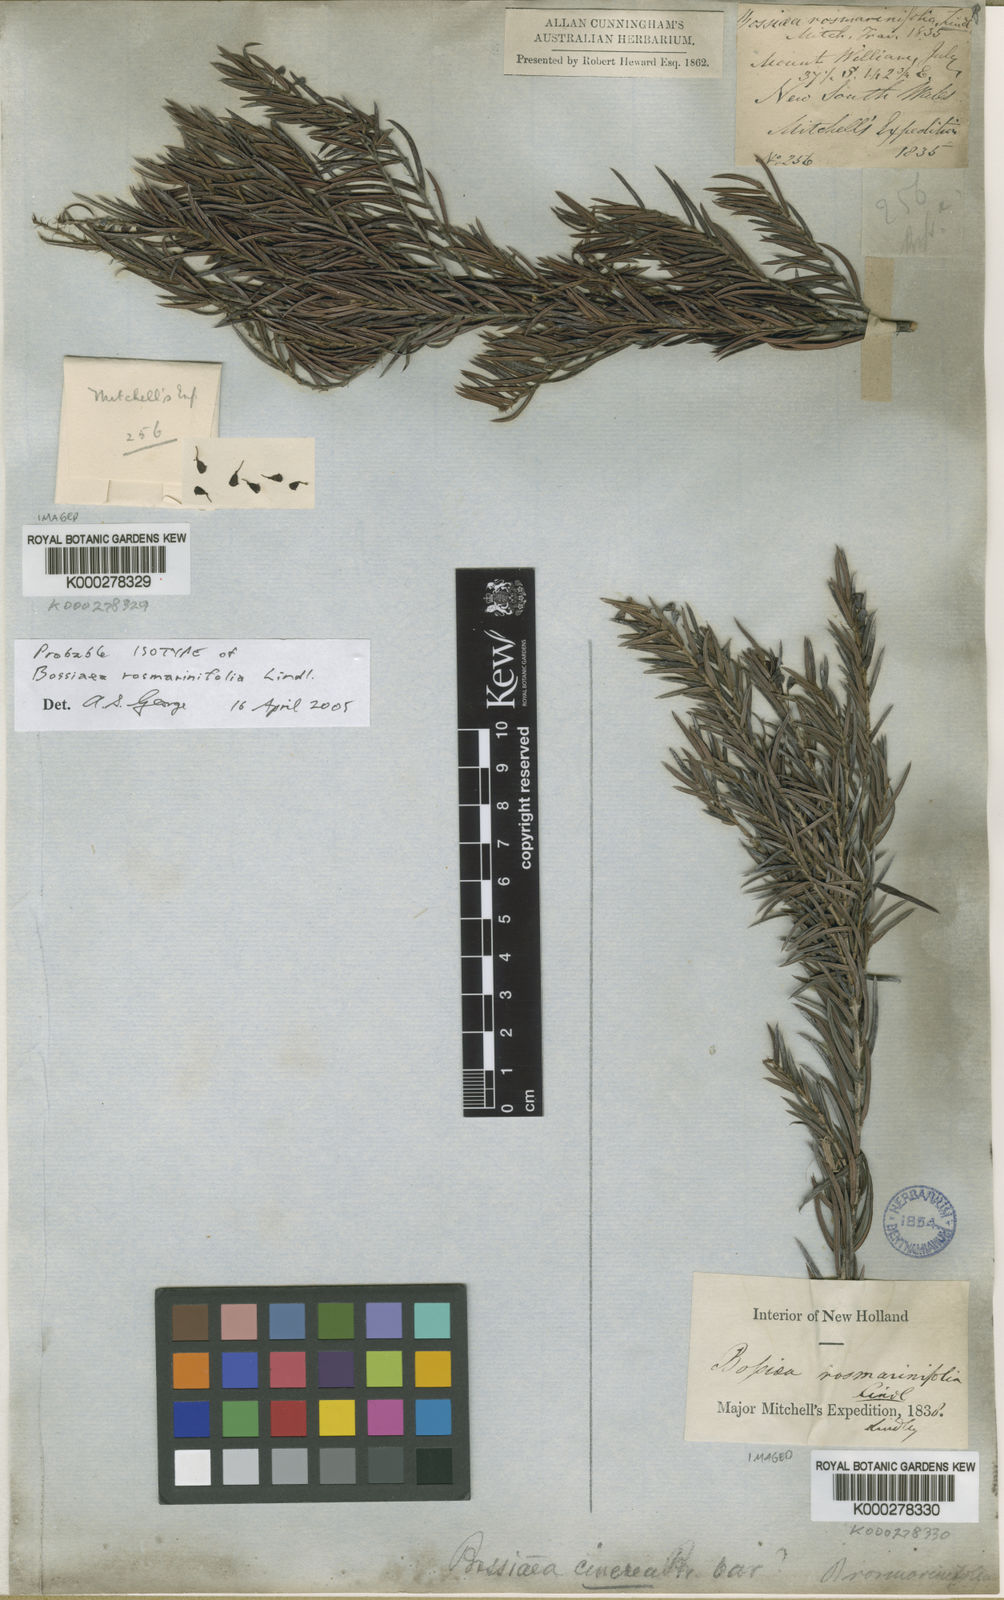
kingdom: Plantae
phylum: Tracheophyta
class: Magnoliopsida
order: Fabales
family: Fabaceae
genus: Bossiaea
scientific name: Bossiaea rosmarinifolia
